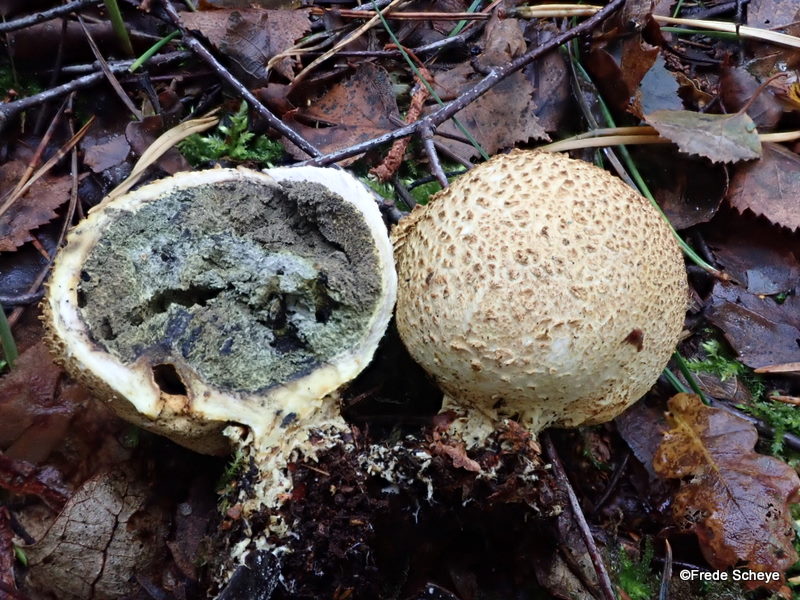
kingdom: Fungi
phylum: Basidiomycota
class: Agaricomycetes
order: Boletales
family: Sclerodermataceae
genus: Scleroderma
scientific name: Scleroderma citrinum
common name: almindelig bruskbold
